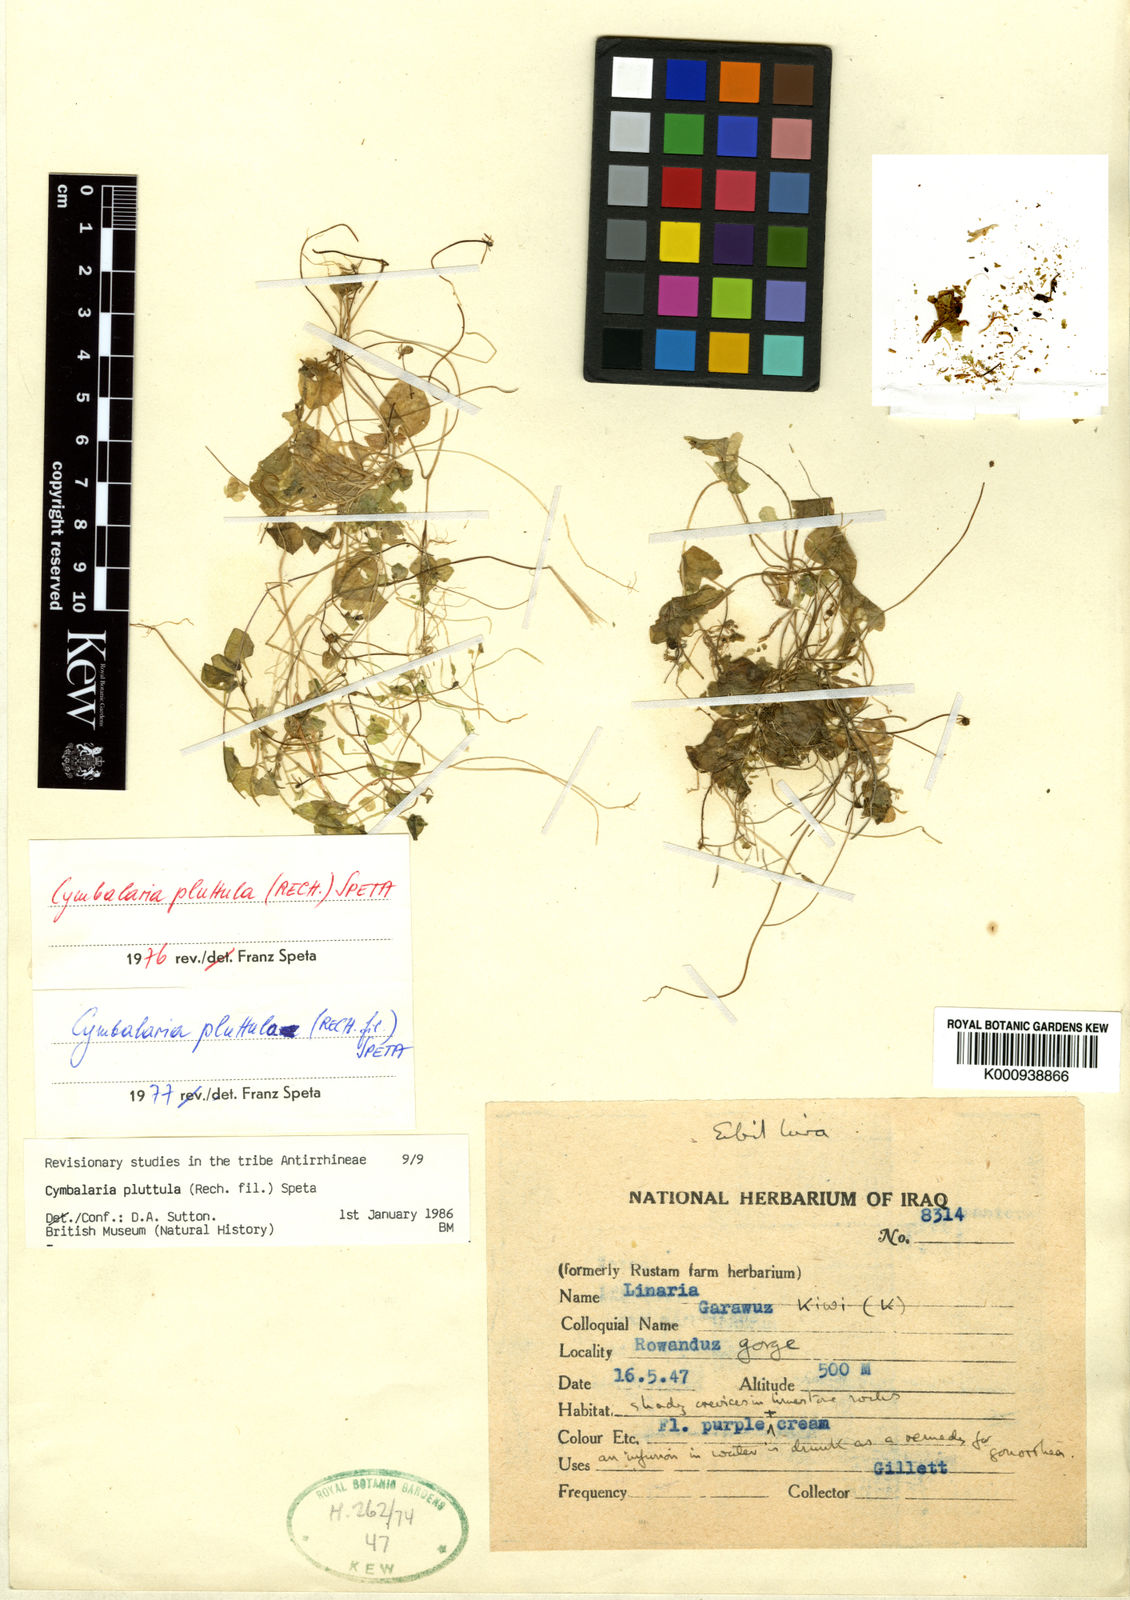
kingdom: Plantae
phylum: Tracheophyta
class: Magnoliopsida
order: Lamiales
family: Plantaginaceae
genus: Cymbalaria
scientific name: Cymbalaria pluttula
